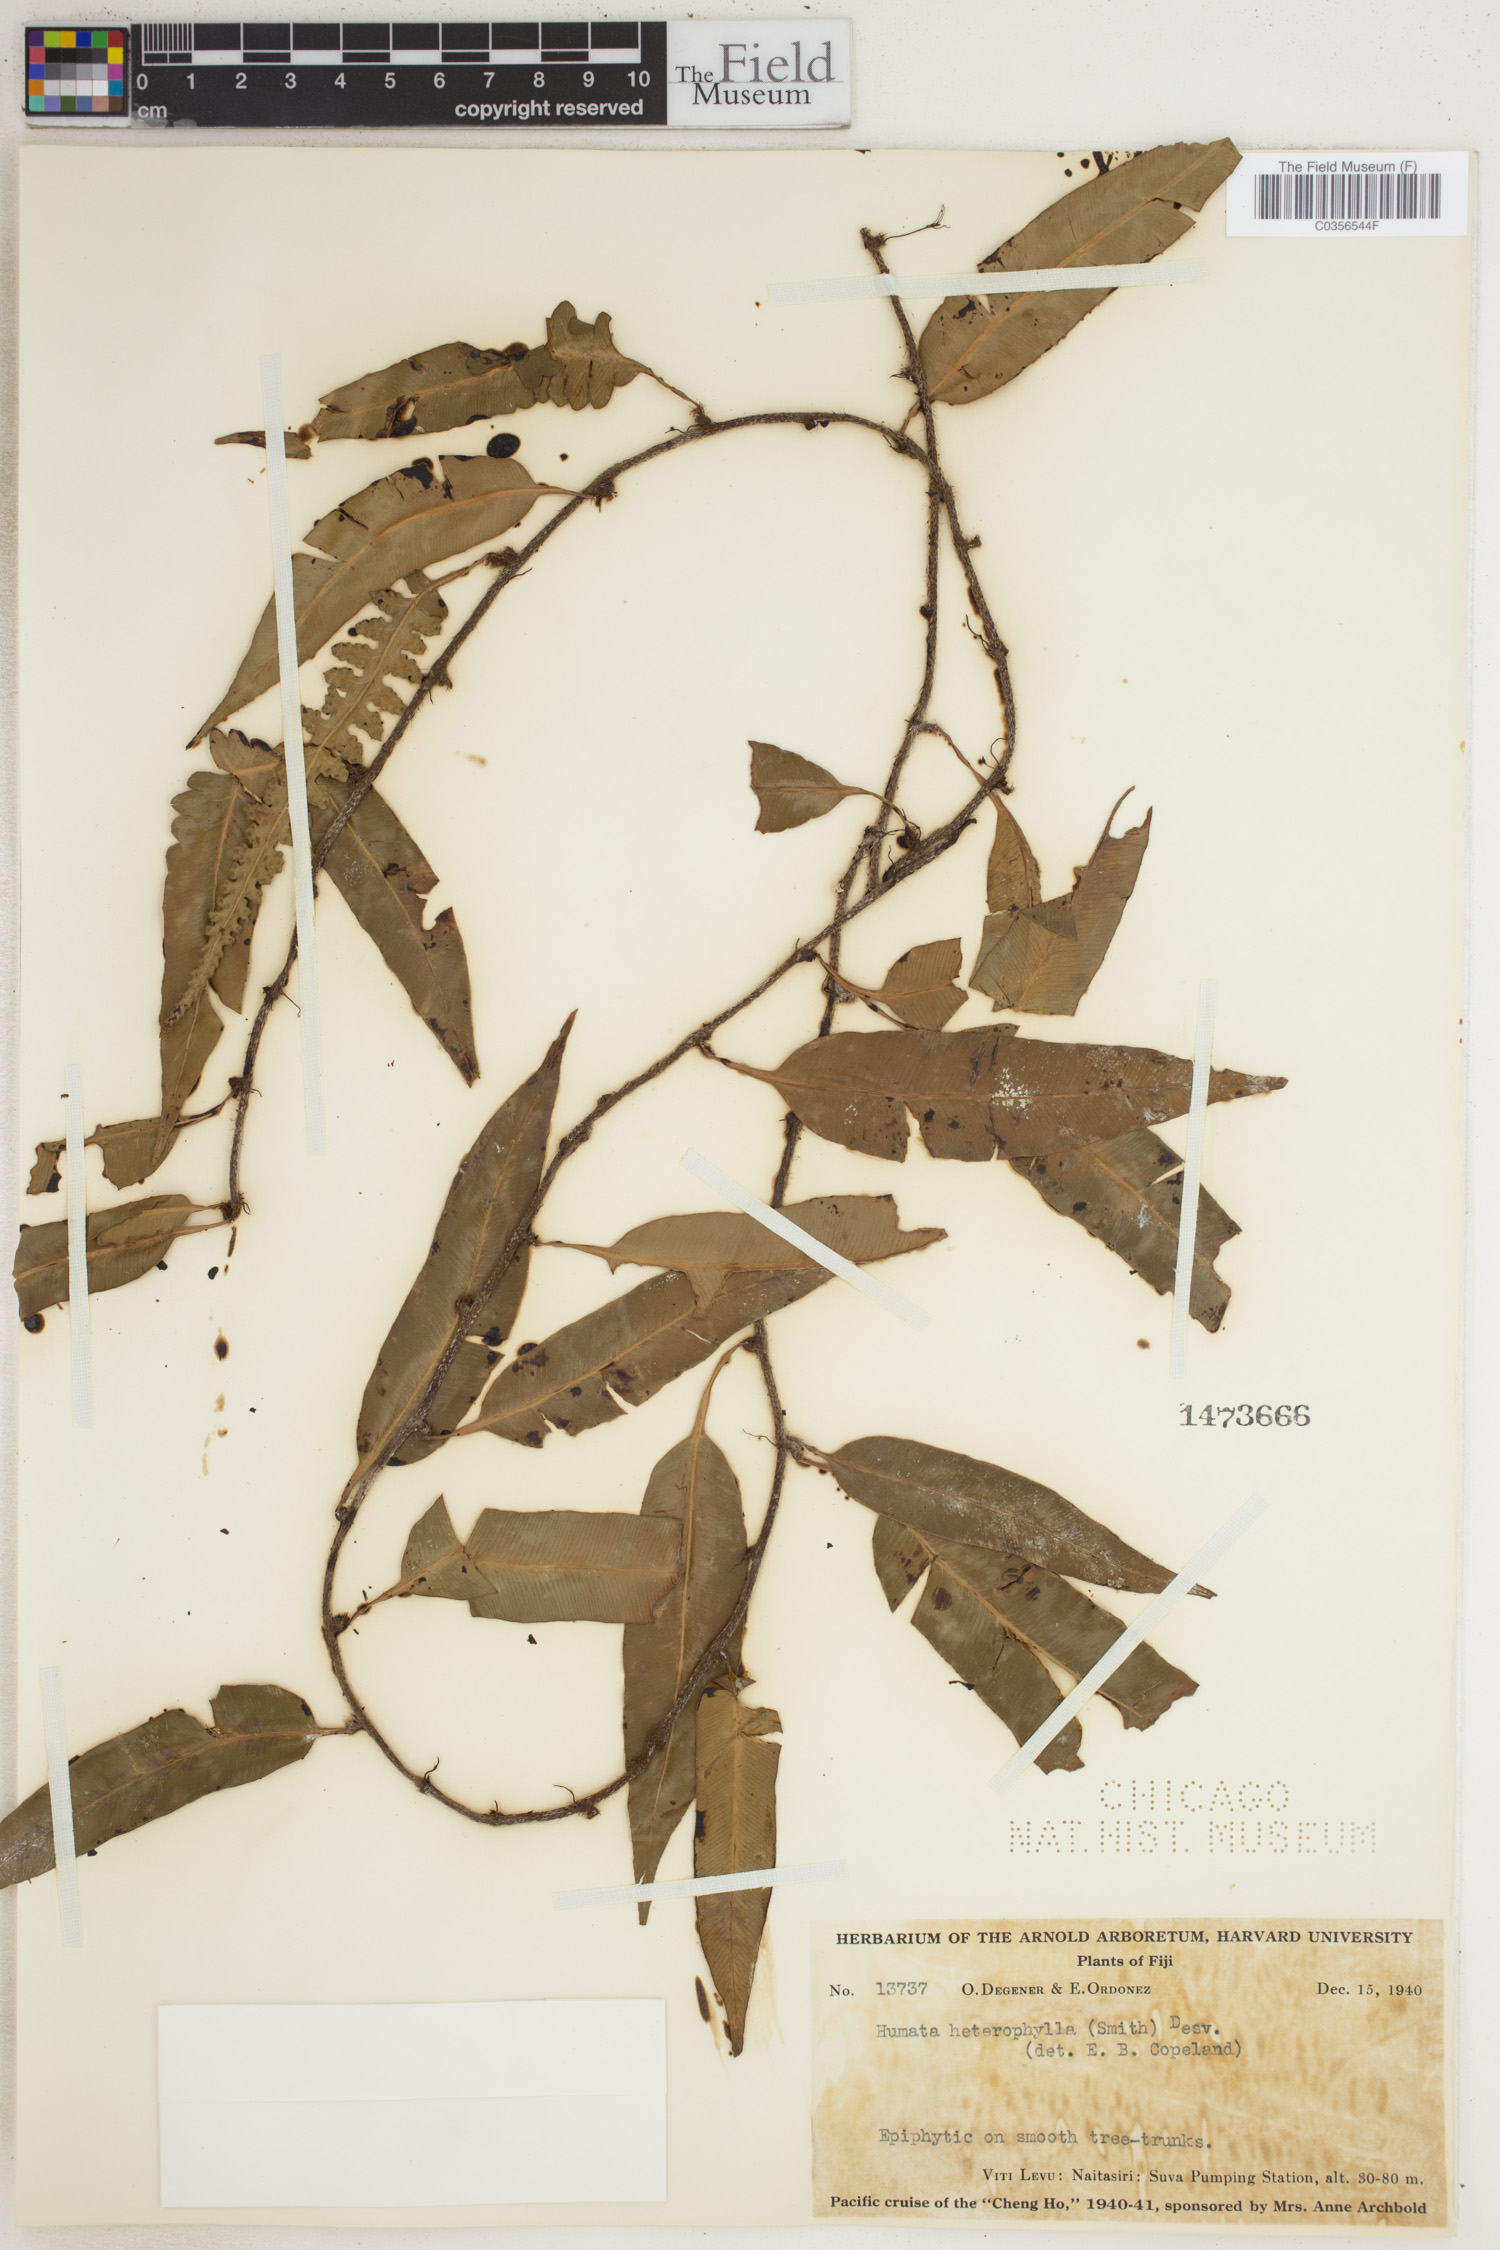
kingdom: Plantae
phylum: Tracheophyta
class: Polypodiopsida
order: Polypodiales
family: Davalliaceae
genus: Davallia
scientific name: Davallia heterophylla
